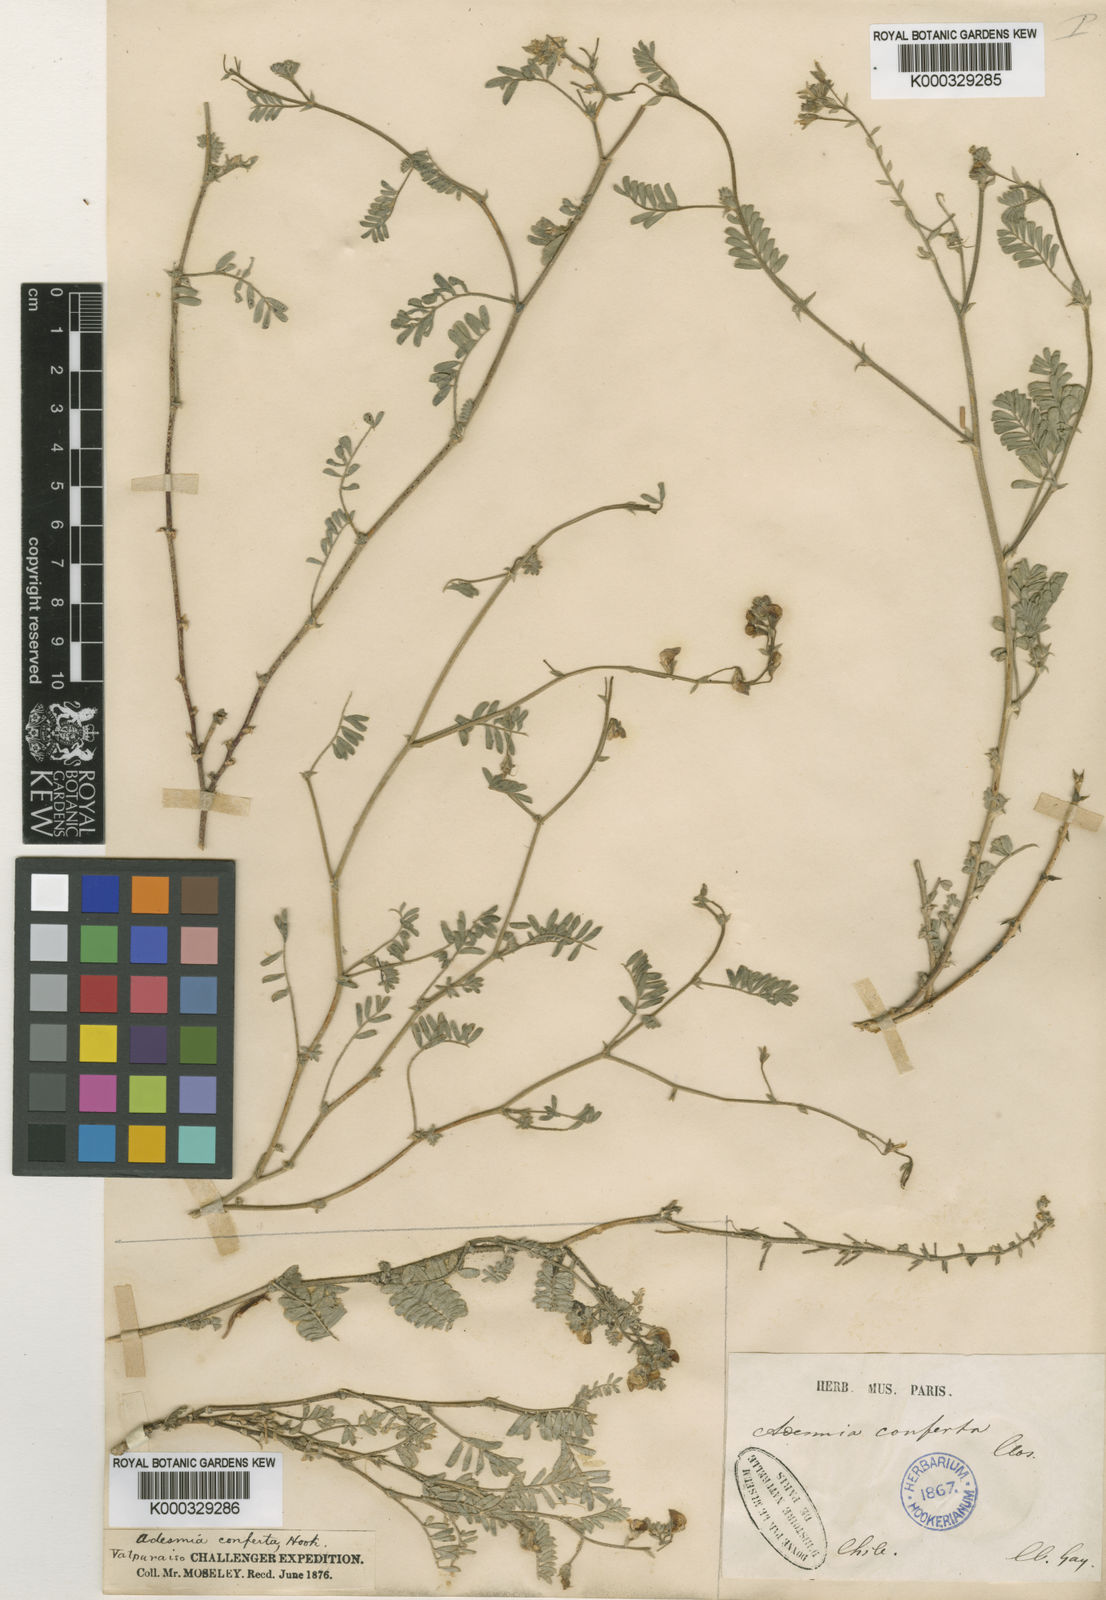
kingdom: Plantae
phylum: Tracheophyta
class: Magnoliopsida
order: Fabales
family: Fabaceae
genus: Adesmia
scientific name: Adesmia conferta
